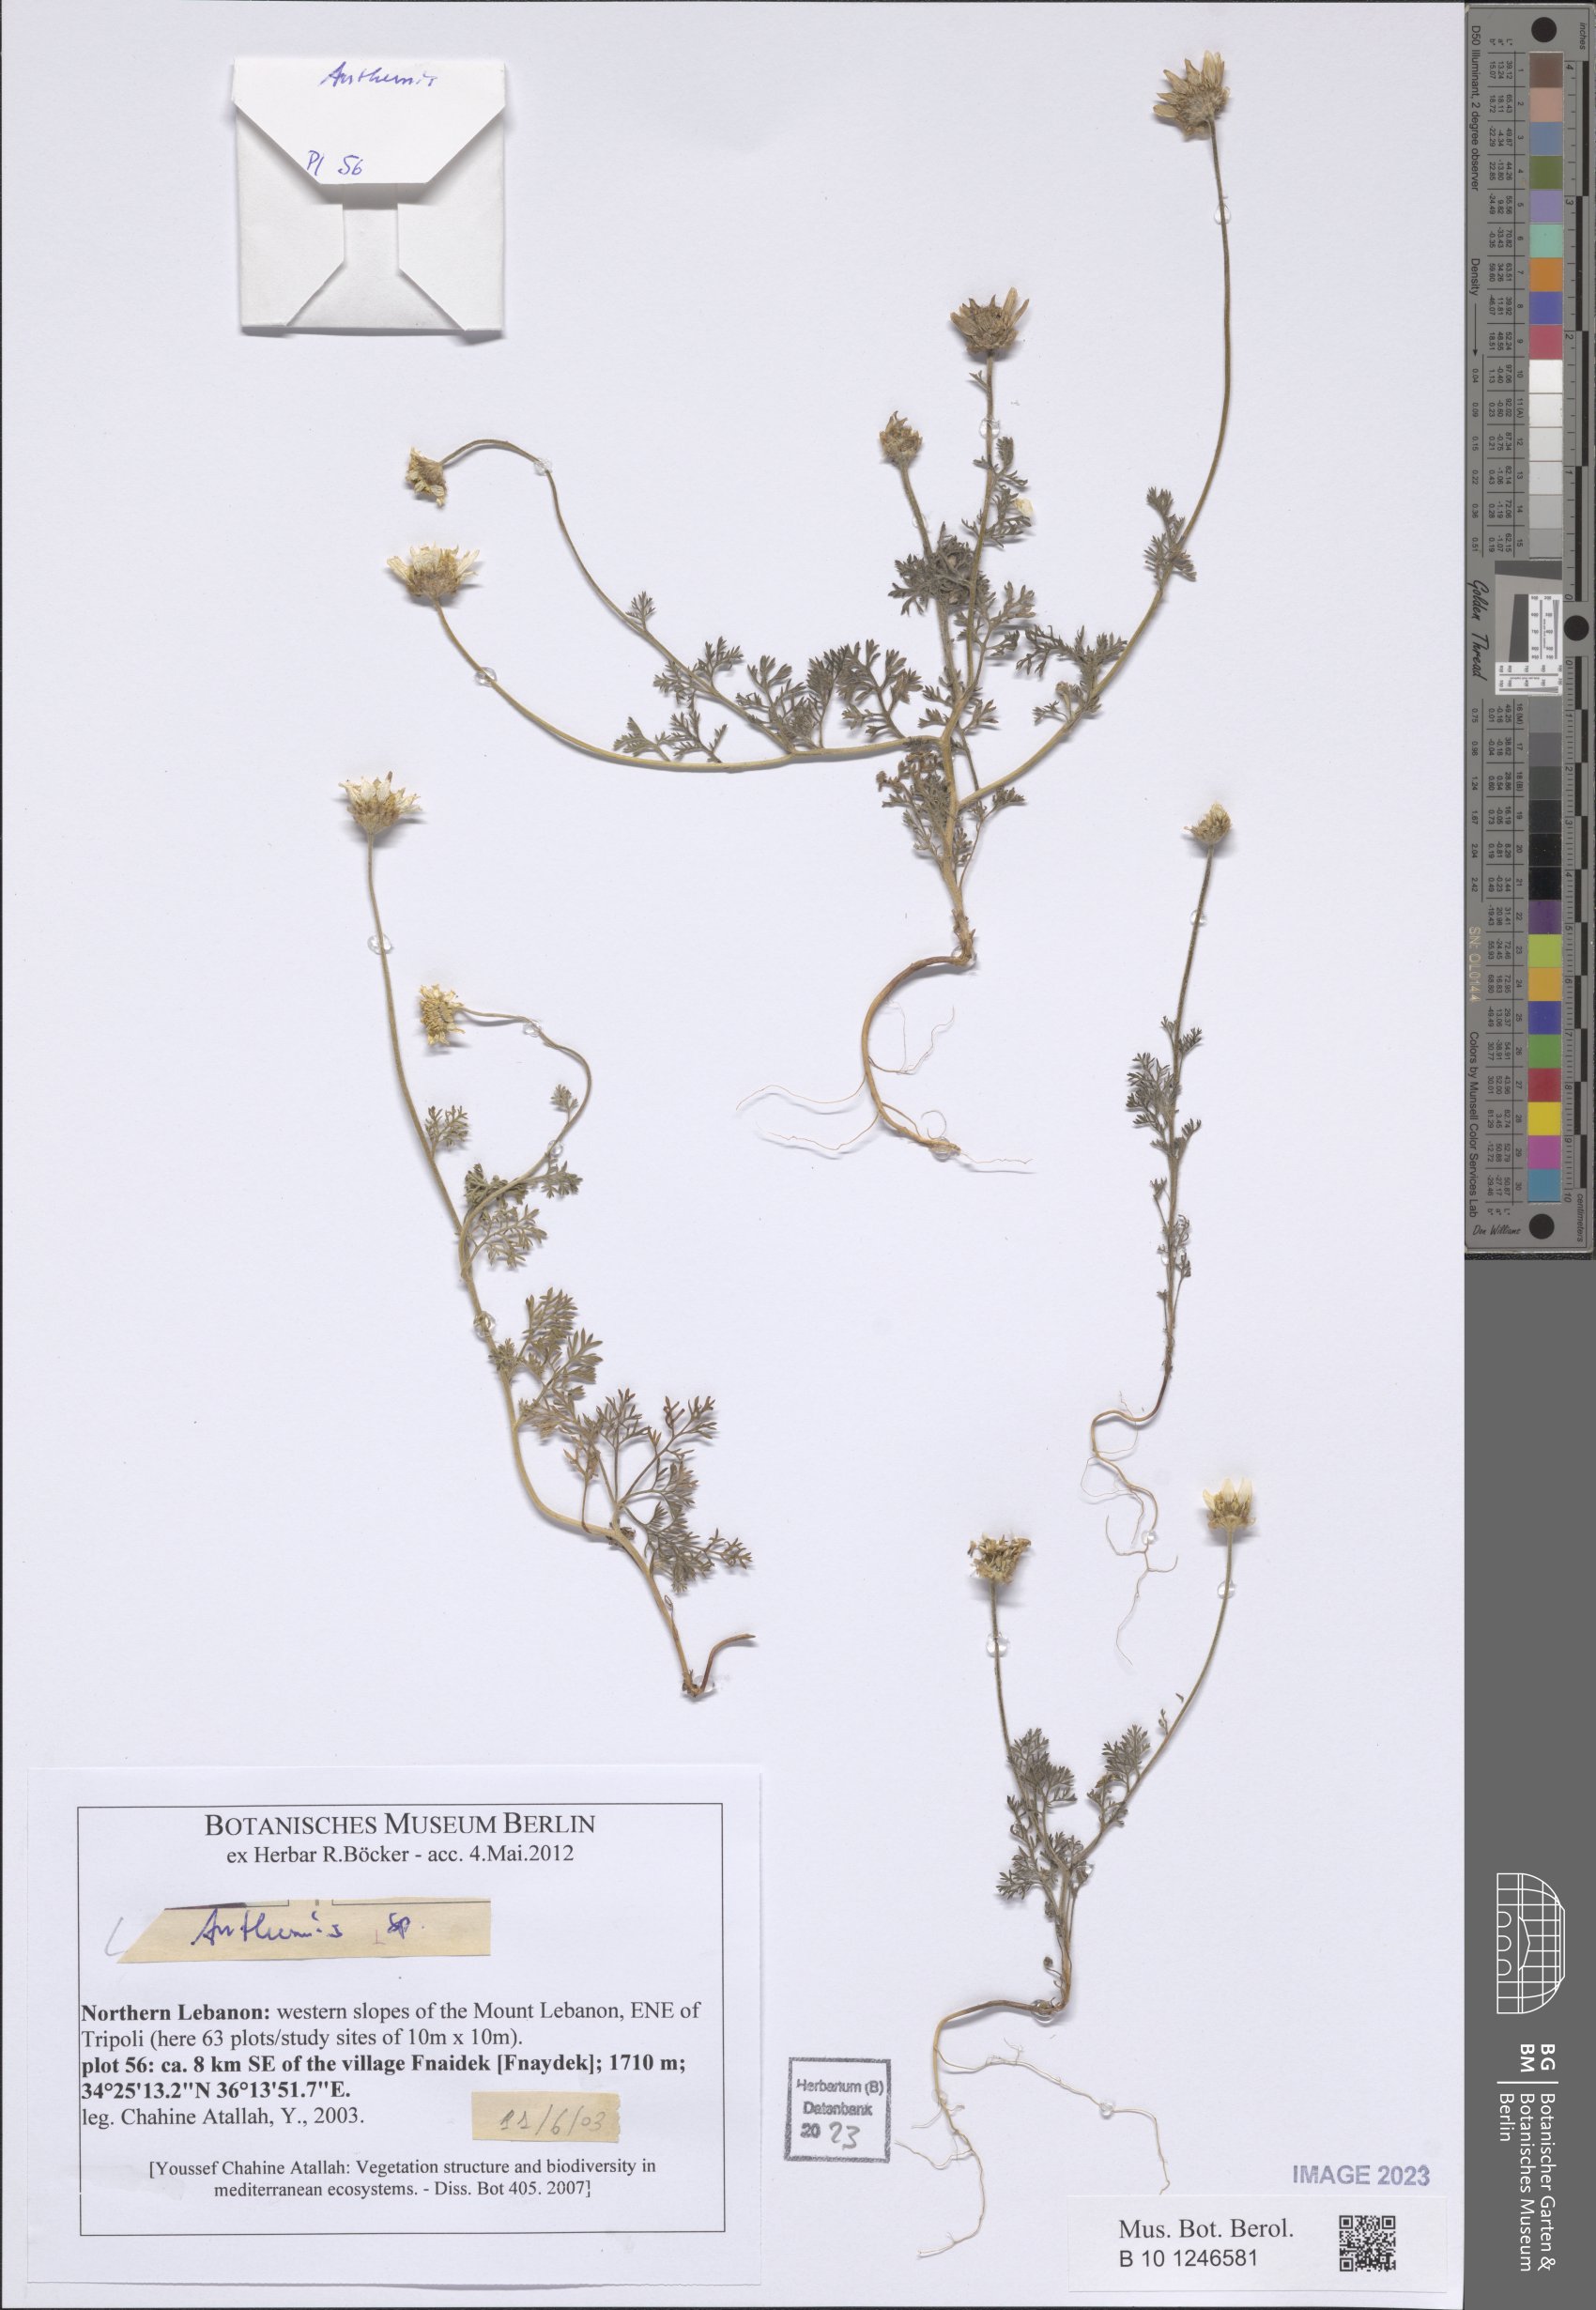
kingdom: Plantae
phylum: Tracheophyta
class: Magnoliopsida
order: Asterales
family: Asteraceae
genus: Anthemis
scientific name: Anthemis
